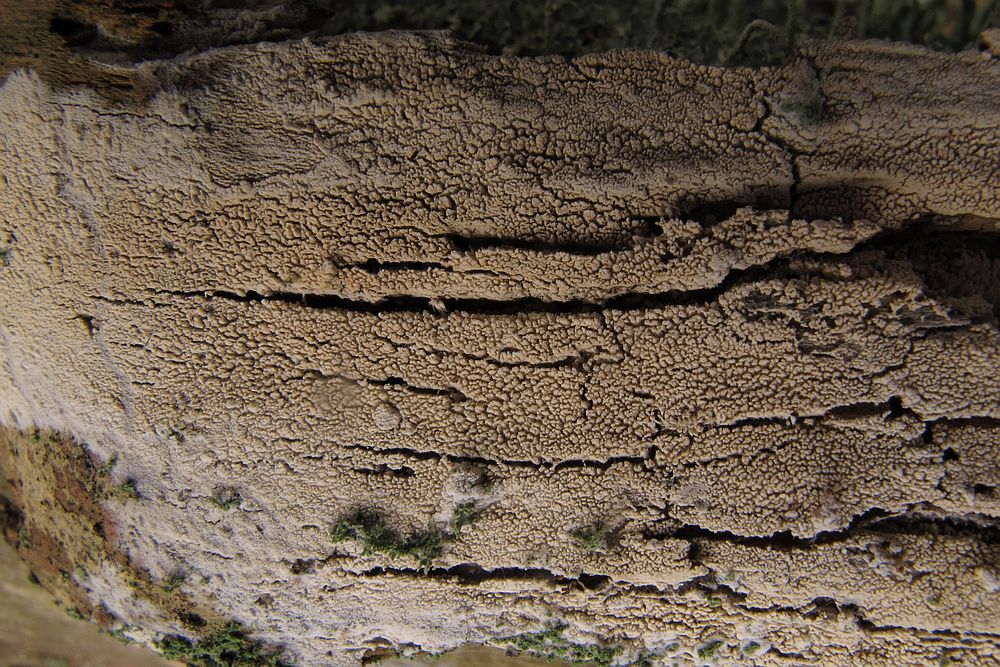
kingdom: Fungi
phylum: Basidiomycota
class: Agaricomycetes
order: Trechisporales
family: Sistotremataceae
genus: Trechispora
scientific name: Trechispora farinacea
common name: pigget vathinde
